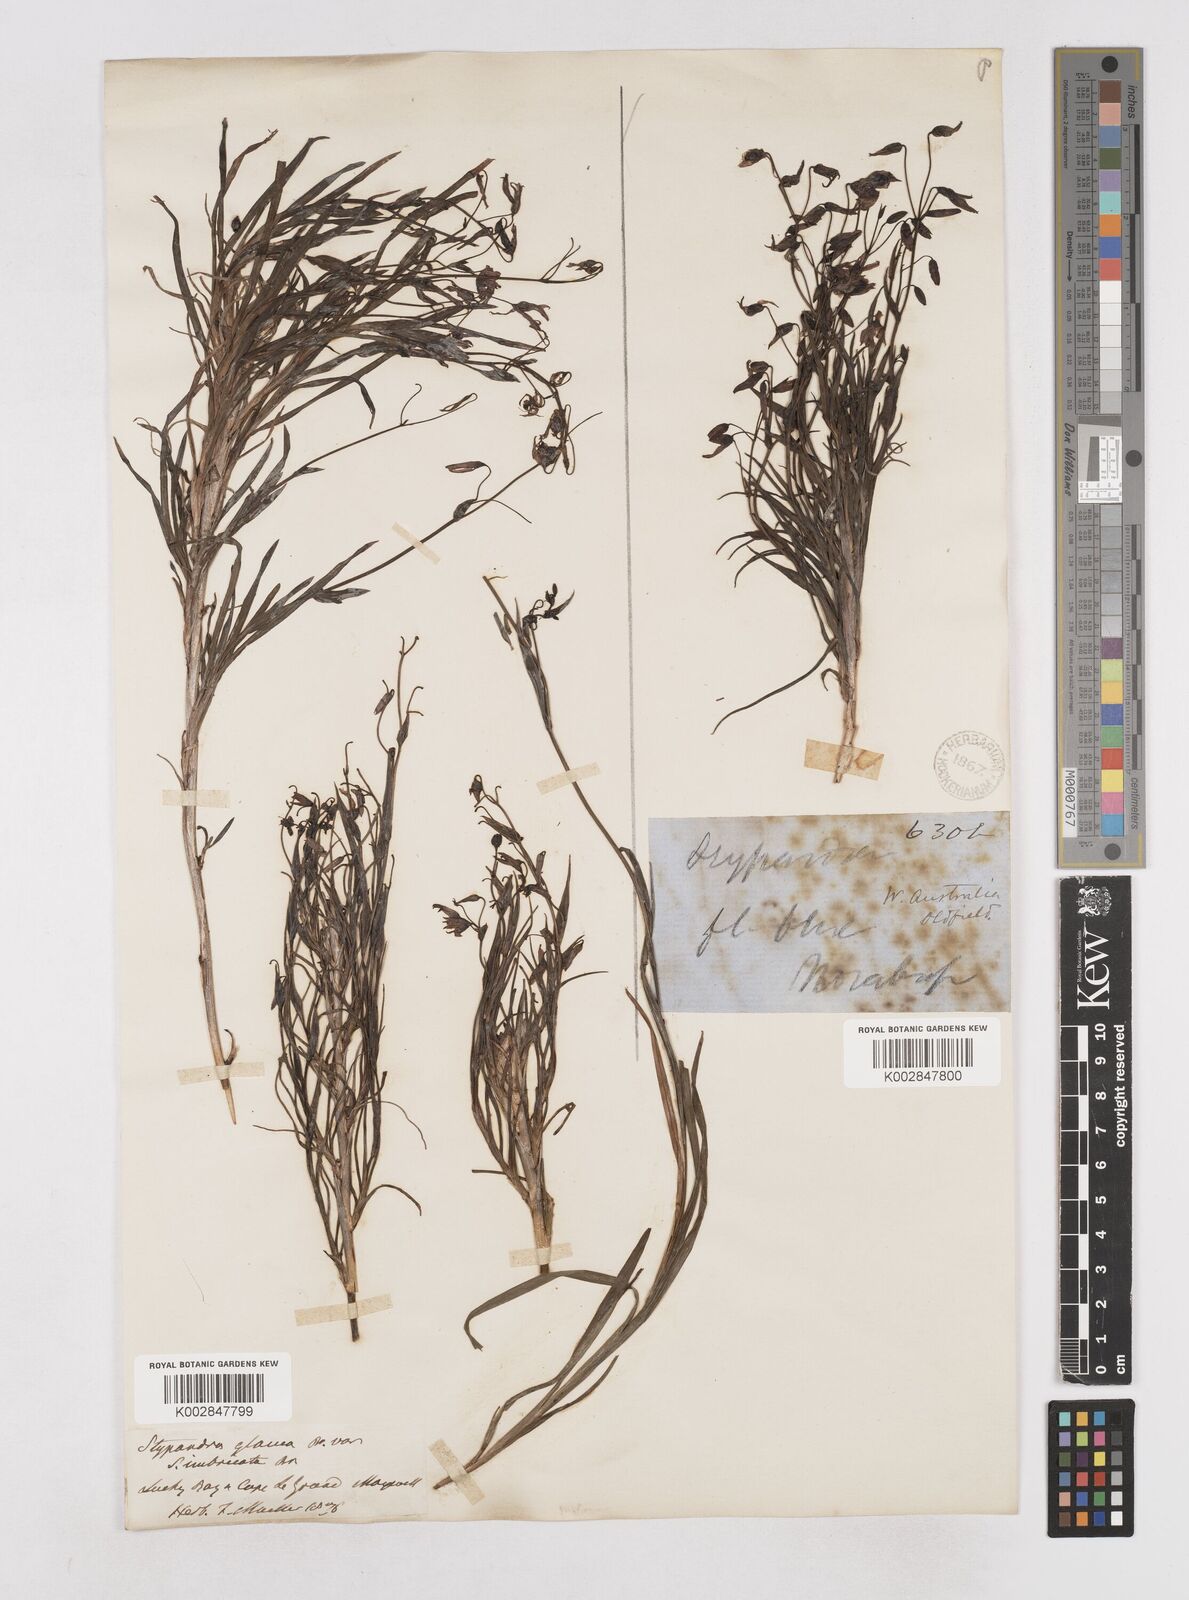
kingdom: Plantae
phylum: Tracheophyta
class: Liliopsida
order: Asparagales
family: Asphodelaceae
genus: Stypandra
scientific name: Stypandra glauca
